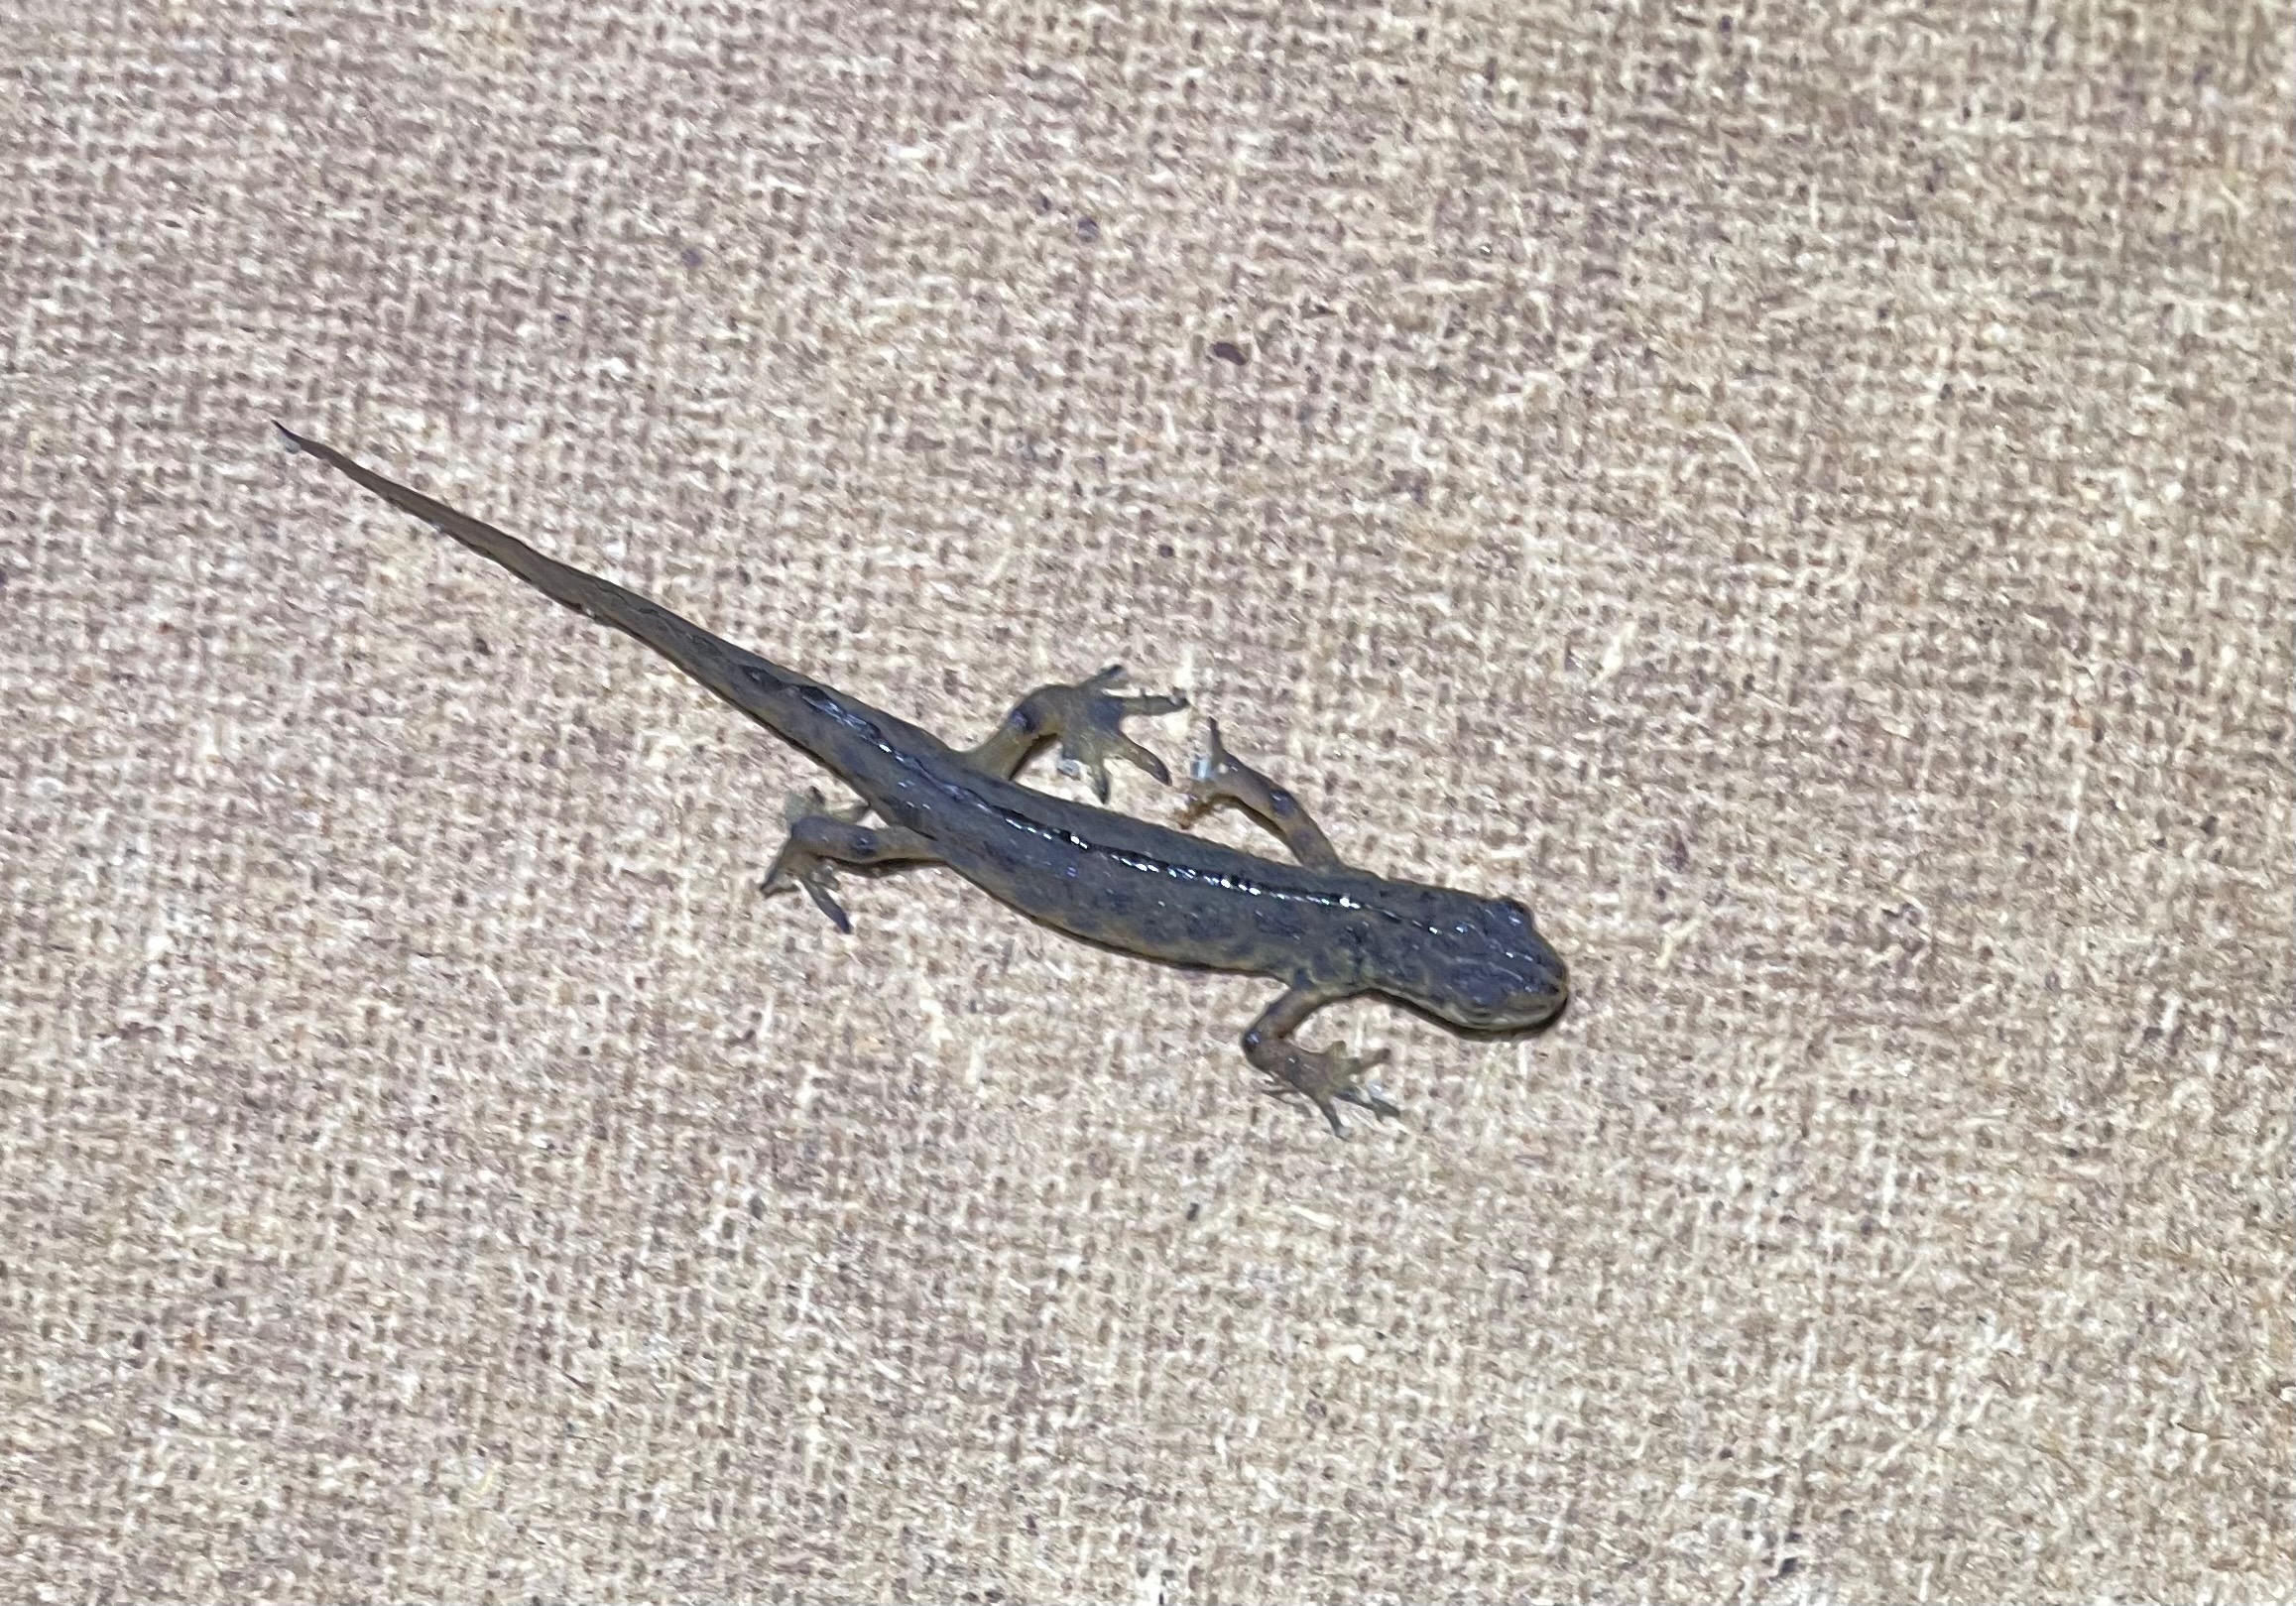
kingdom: Animalia
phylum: Chordata
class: Amphibia
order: Caudata
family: Salamandridae
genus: Lissotriton
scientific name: Lissotriton vulgaris
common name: Lille vandsalamander
